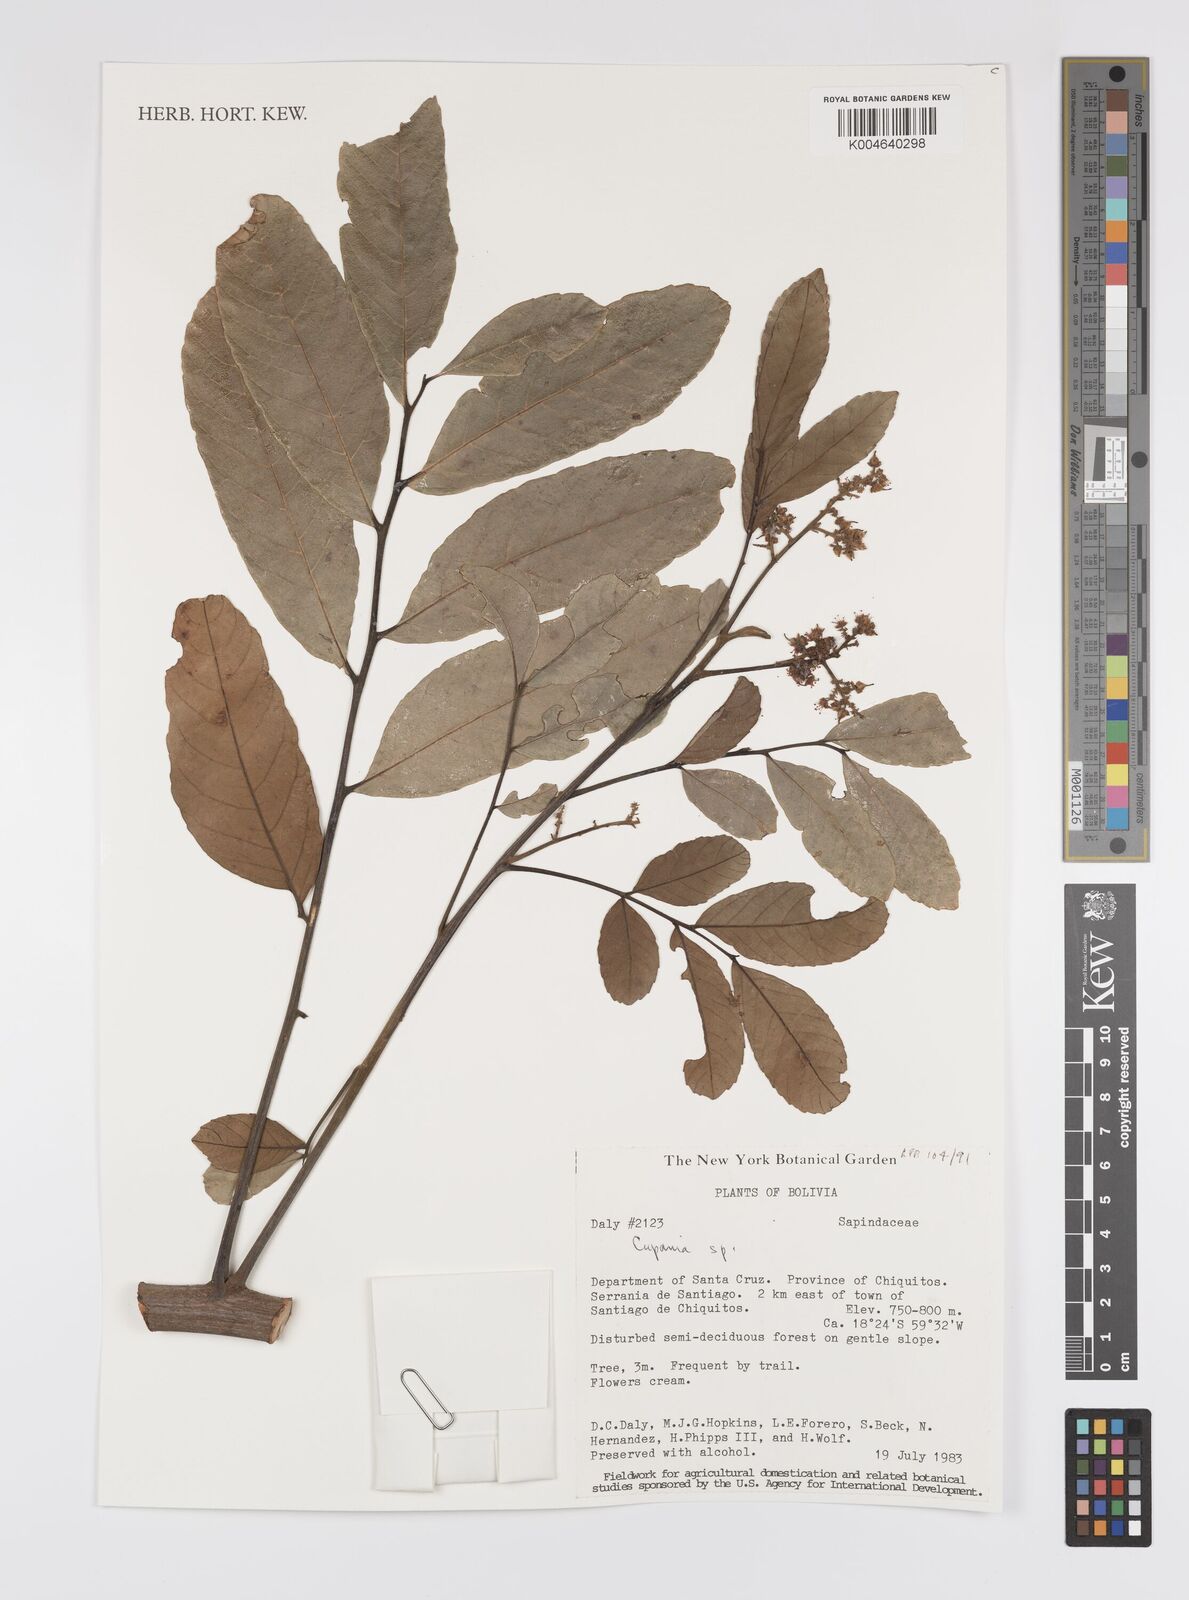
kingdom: Plantae
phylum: Tracheophyta
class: Magnoliopsida
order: Sapindales
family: Sapindaceae
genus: Cupania
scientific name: Cupania
